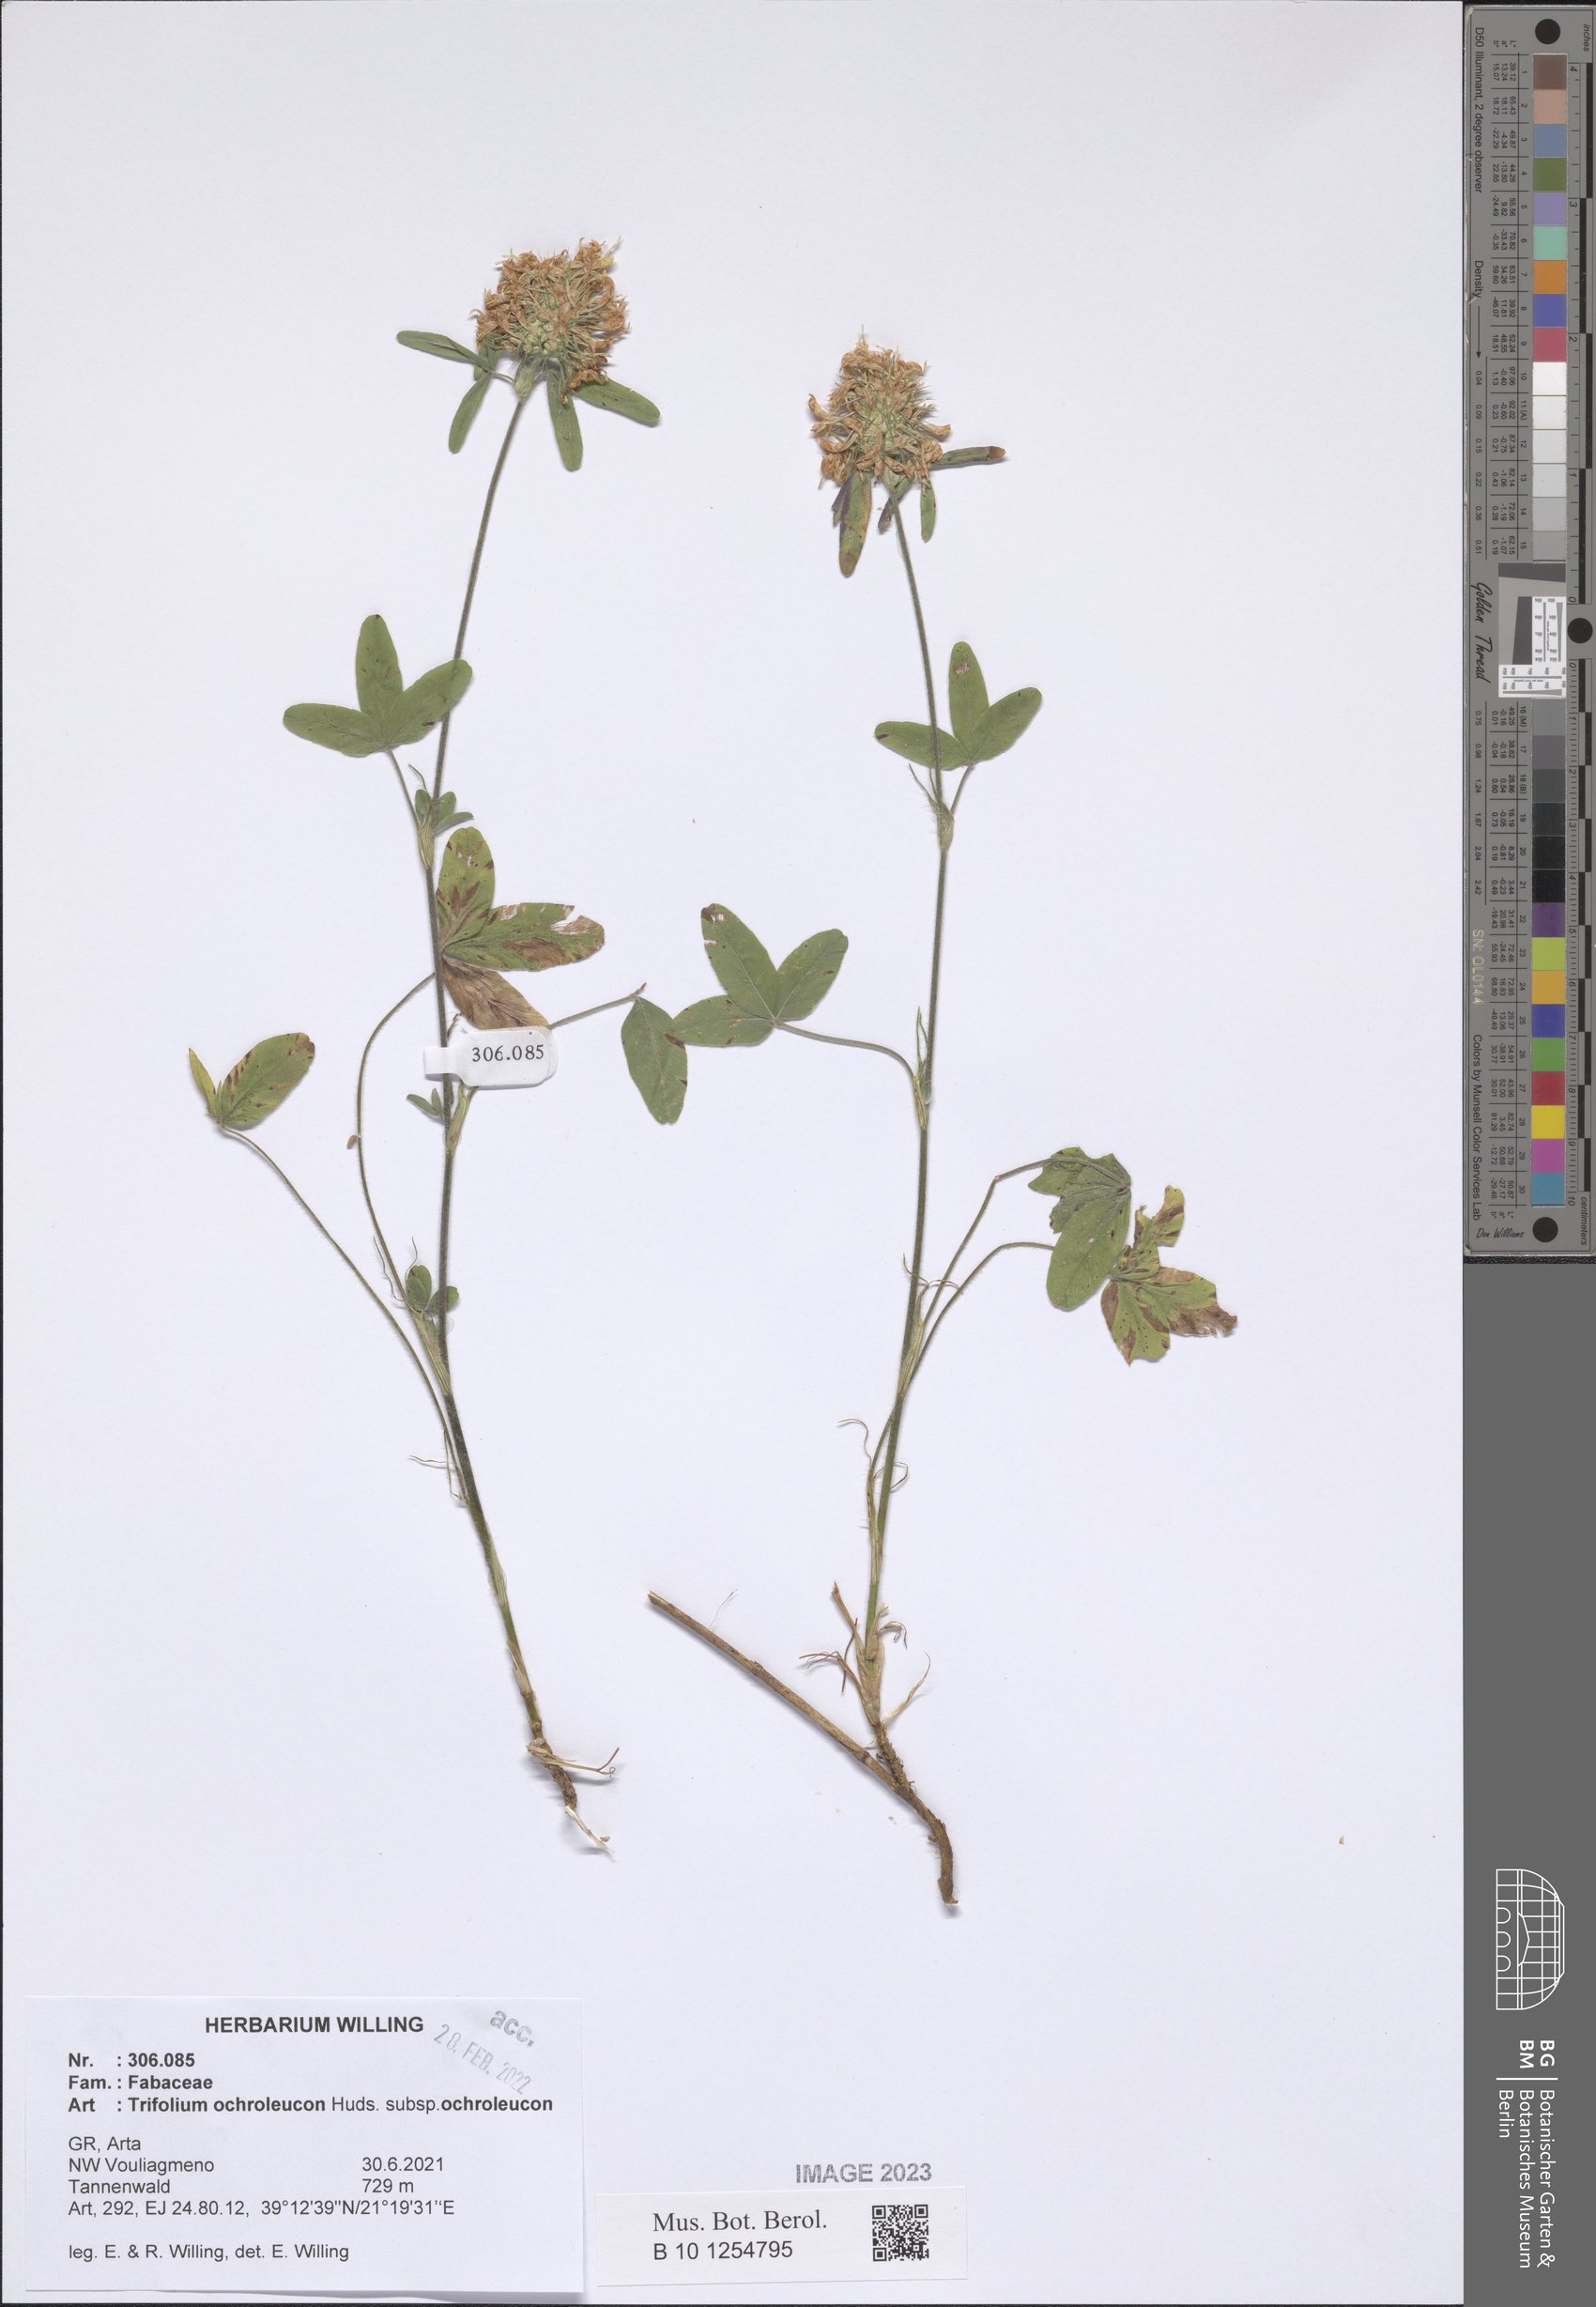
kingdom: Plantae
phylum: Tracheophyta
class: Magnoliopsida
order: Fabales
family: Fabaceae
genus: Trifolium
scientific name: Trifolium ochroleucon
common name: Sulphur clover
